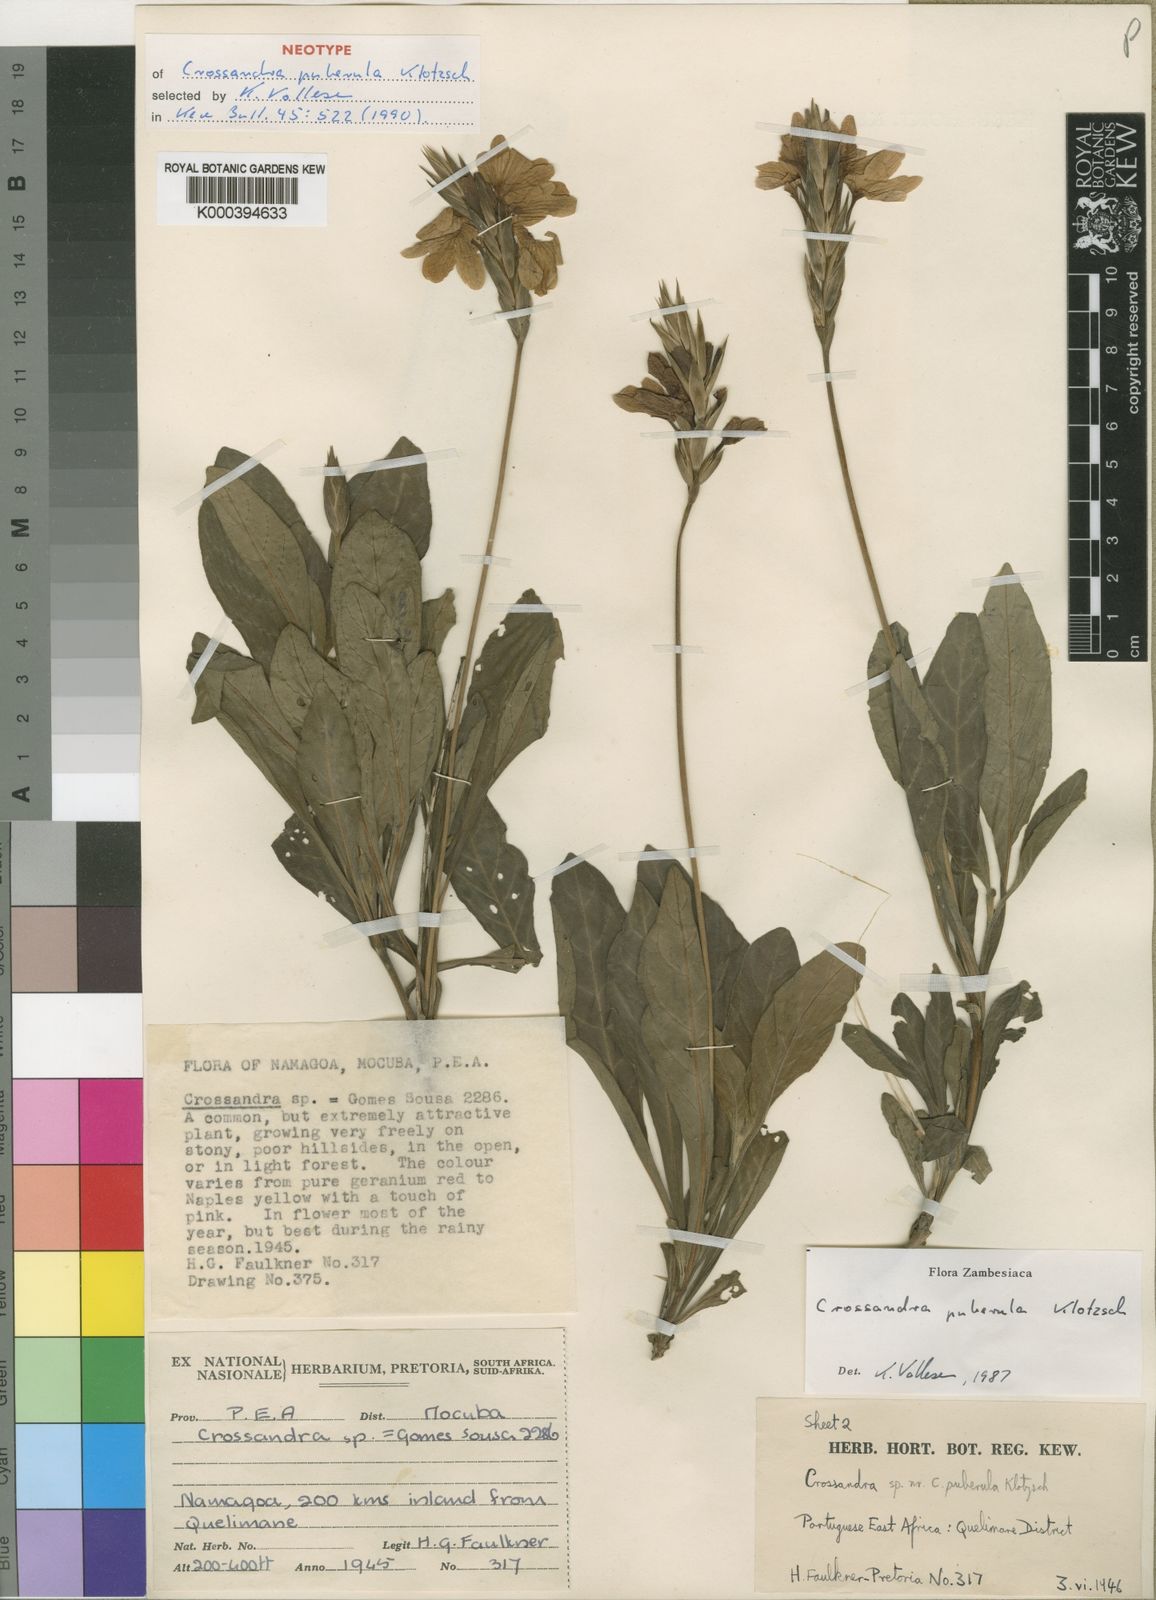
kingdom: Plantae
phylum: Tracheophyta
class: Magnoliopsida
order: Lamiales
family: Acanthaceae
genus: Crossandra
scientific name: Crossandra puberula
